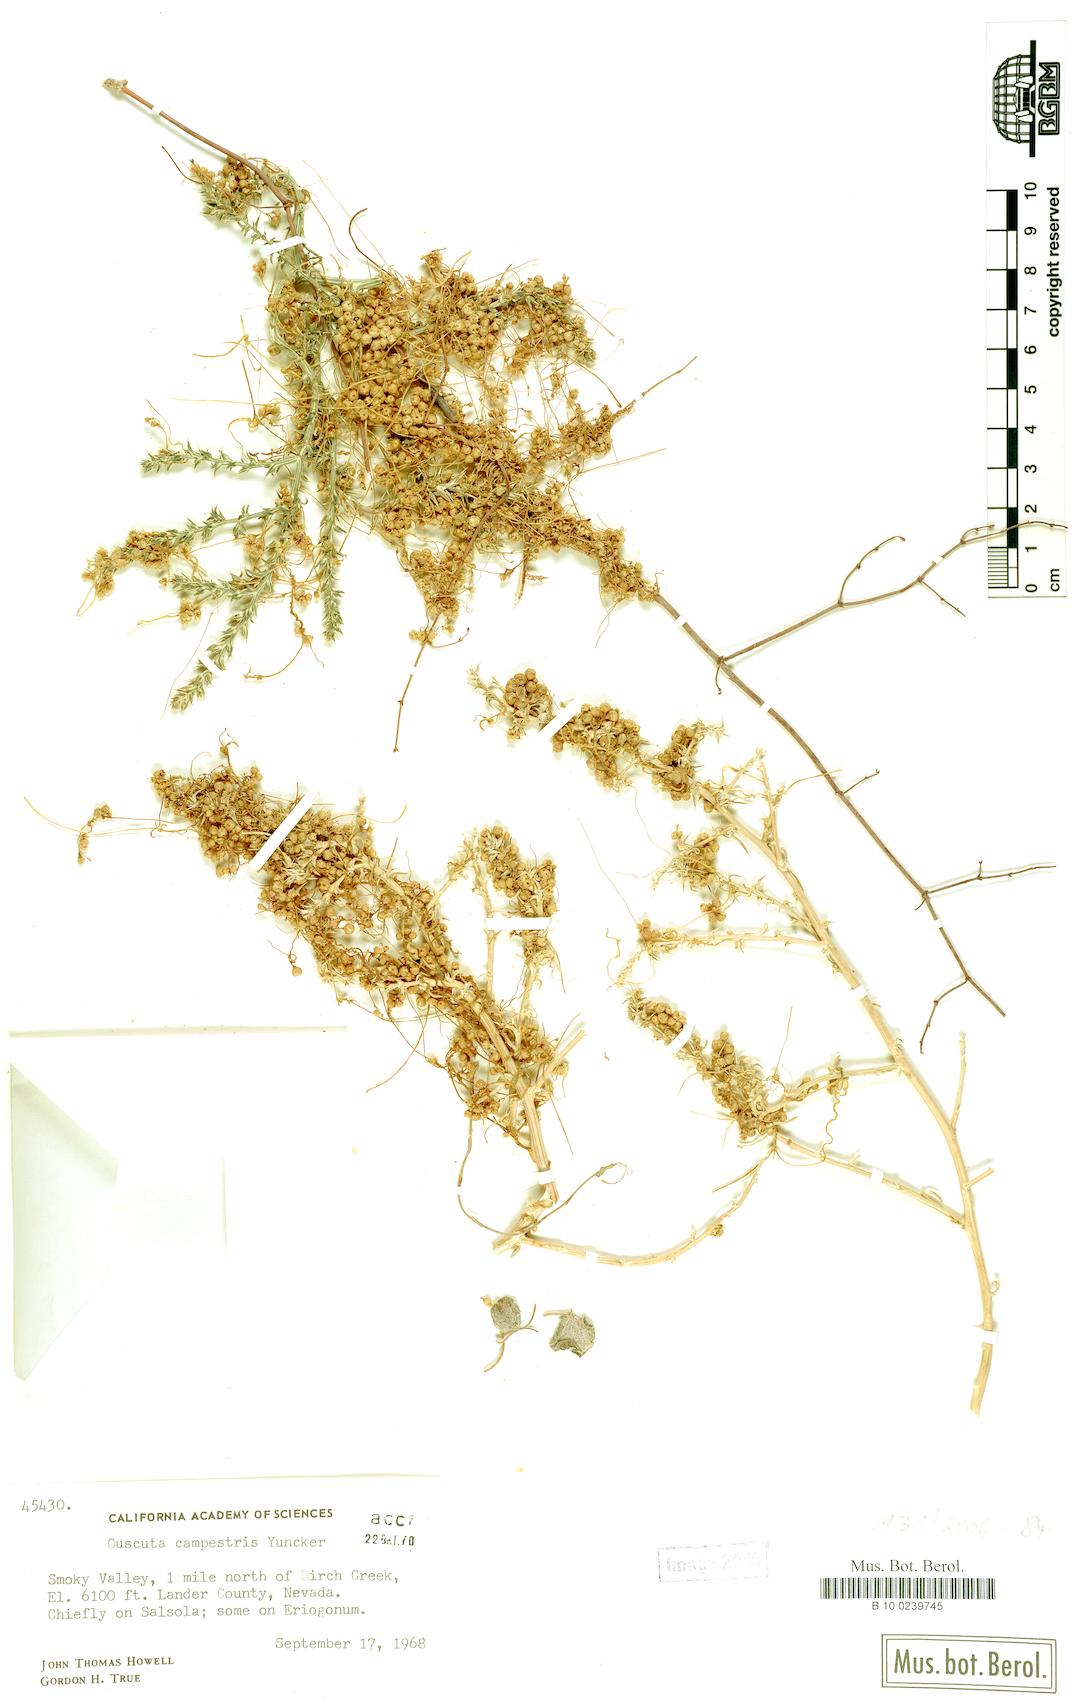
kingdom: Plantae
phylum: Tracheophyta
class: Magnoliopsida
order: Solanales
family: Convolvulaceae
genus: Cuscuta
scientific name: Cuscuta campestris
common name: Yellow dodder
